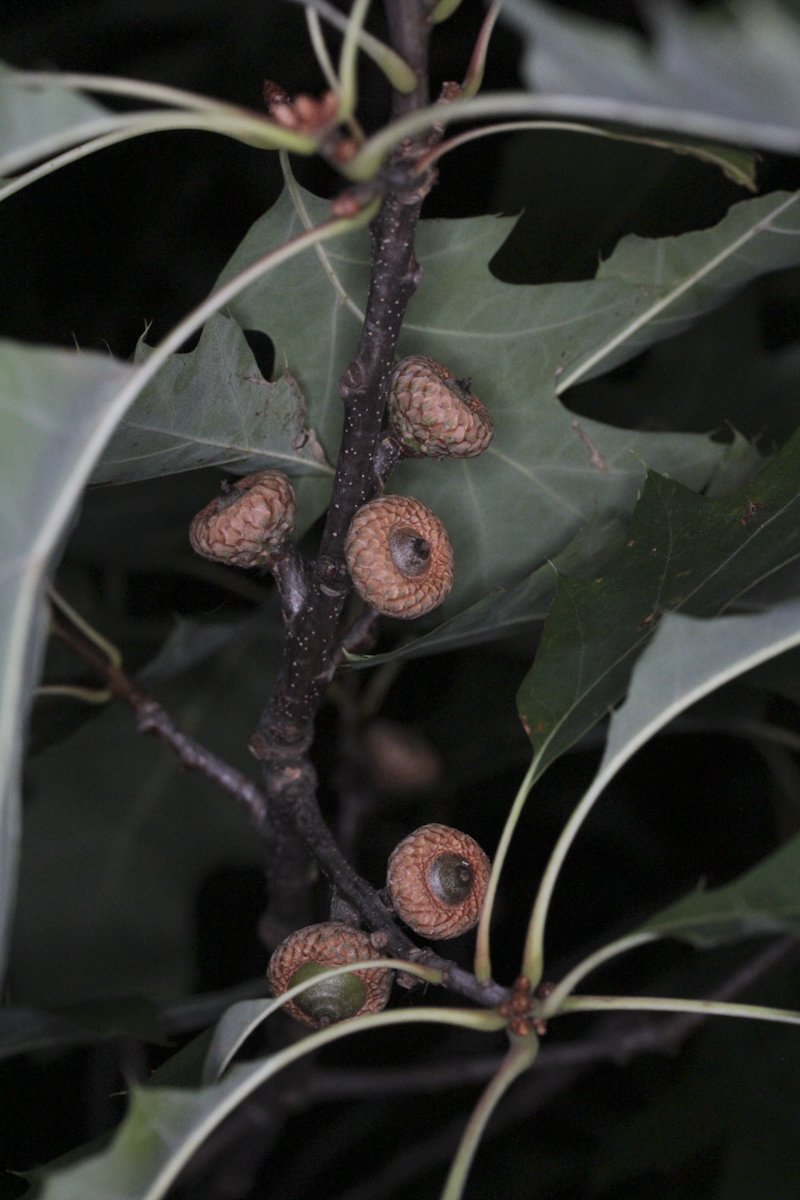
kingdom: Plantae
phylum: Tracheophyta
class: Magnoliopsida
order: Fagales
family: Fagaceae
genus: Quercus
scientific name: Quercus rubra
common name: Red oak
